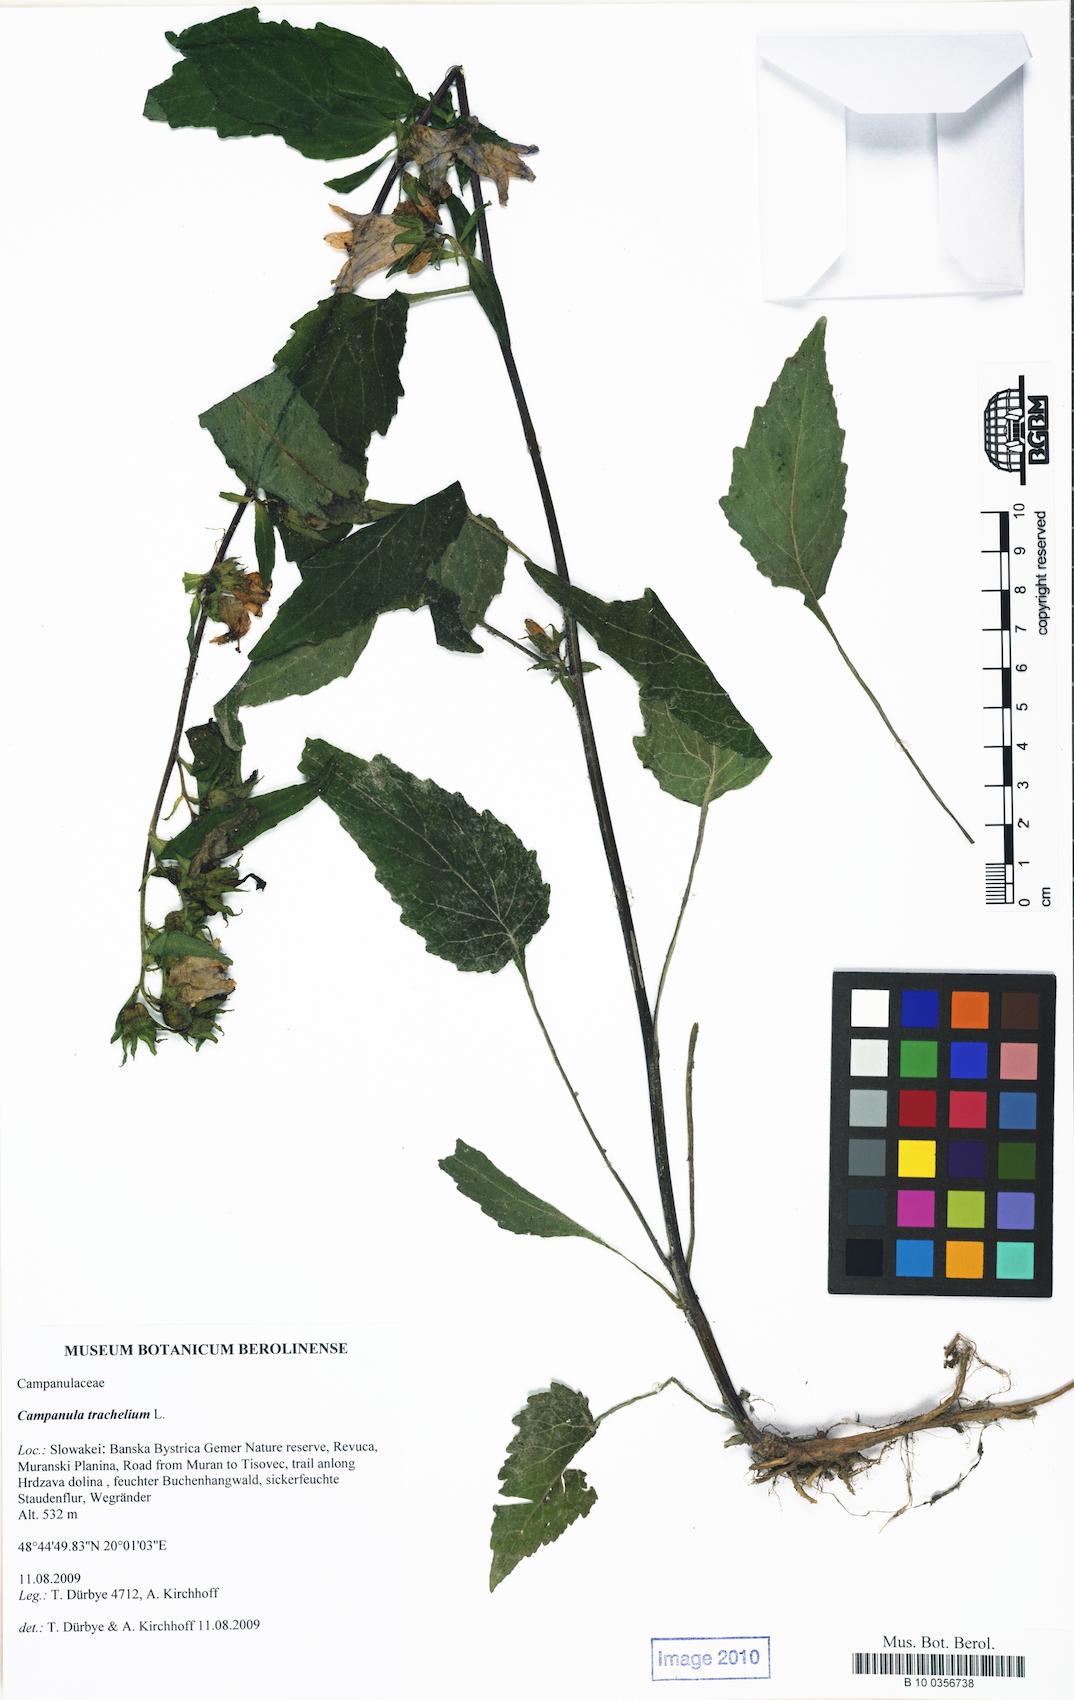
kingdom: Plantae
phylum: Tracheophyta
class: Magnoliopsida
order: Asterales
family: Campanulaceae
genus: Campanula
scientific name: Campanula trachelium
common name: Nettle-leaved bellflower
